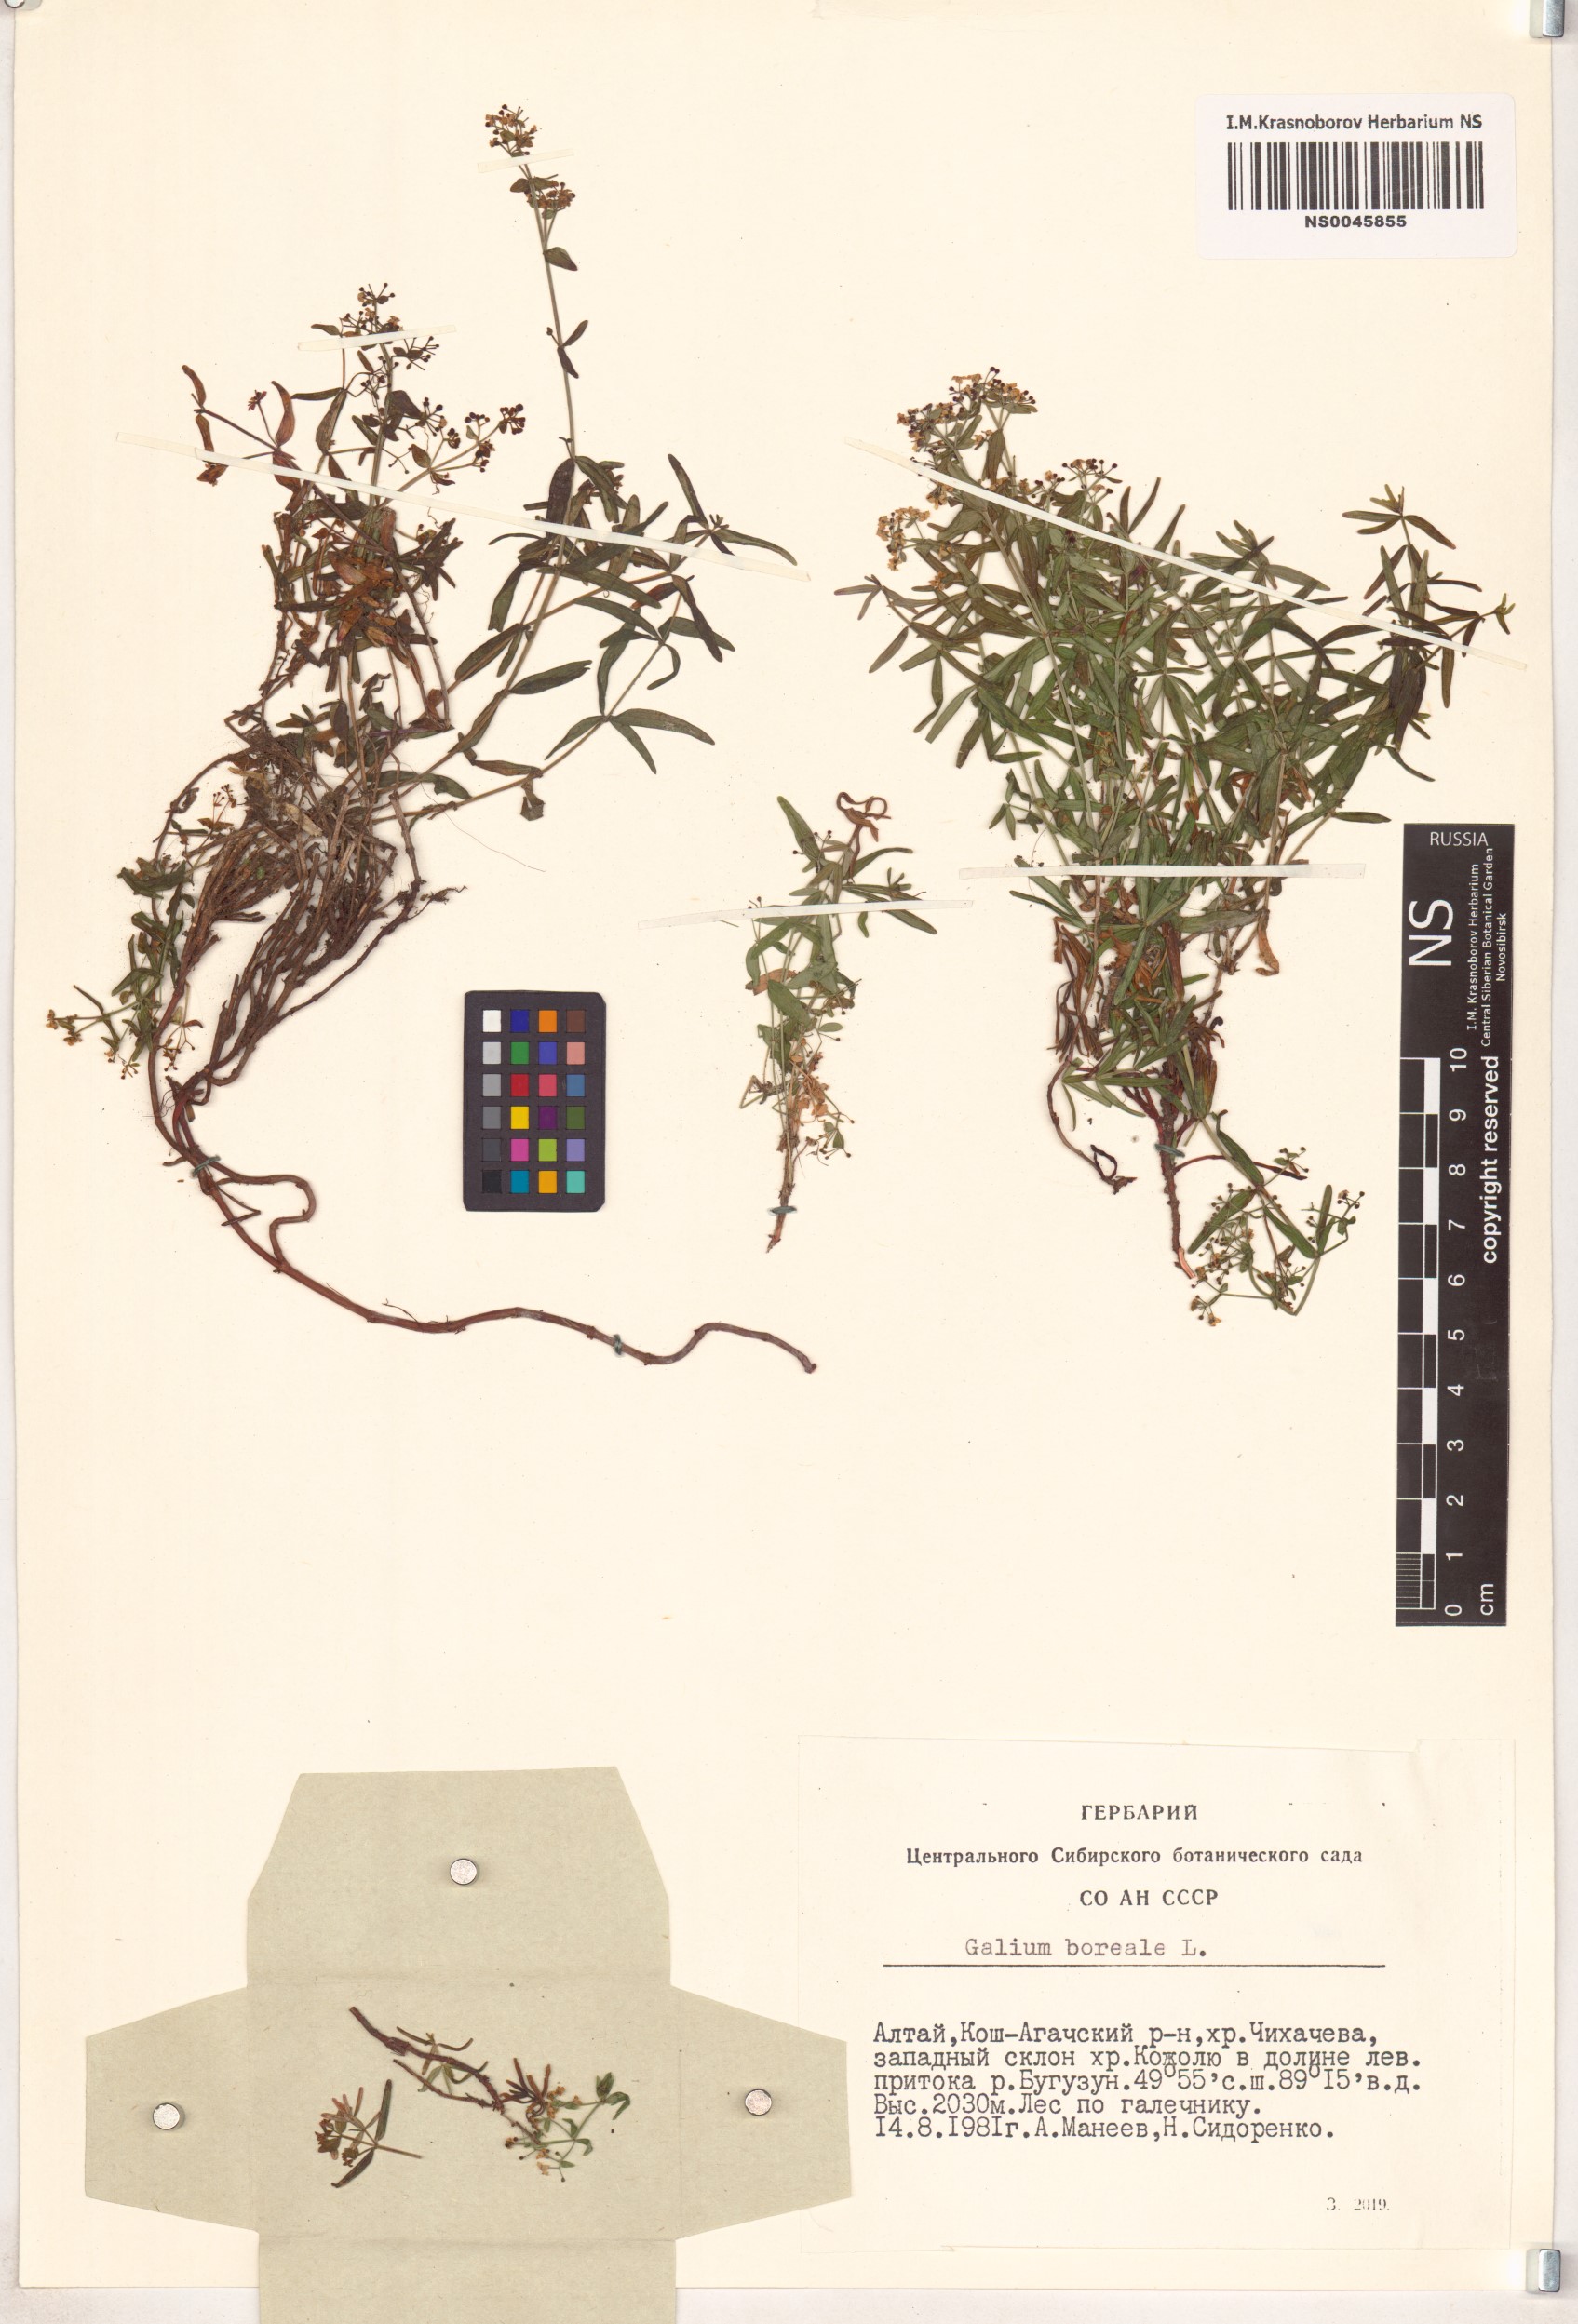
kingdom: Plantae
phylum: Tracheophyta
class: Magnoliopsida
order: Gentianales
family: Rubiaceae
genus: Galium
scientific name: Galium boreale
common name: Northern bedstraw
